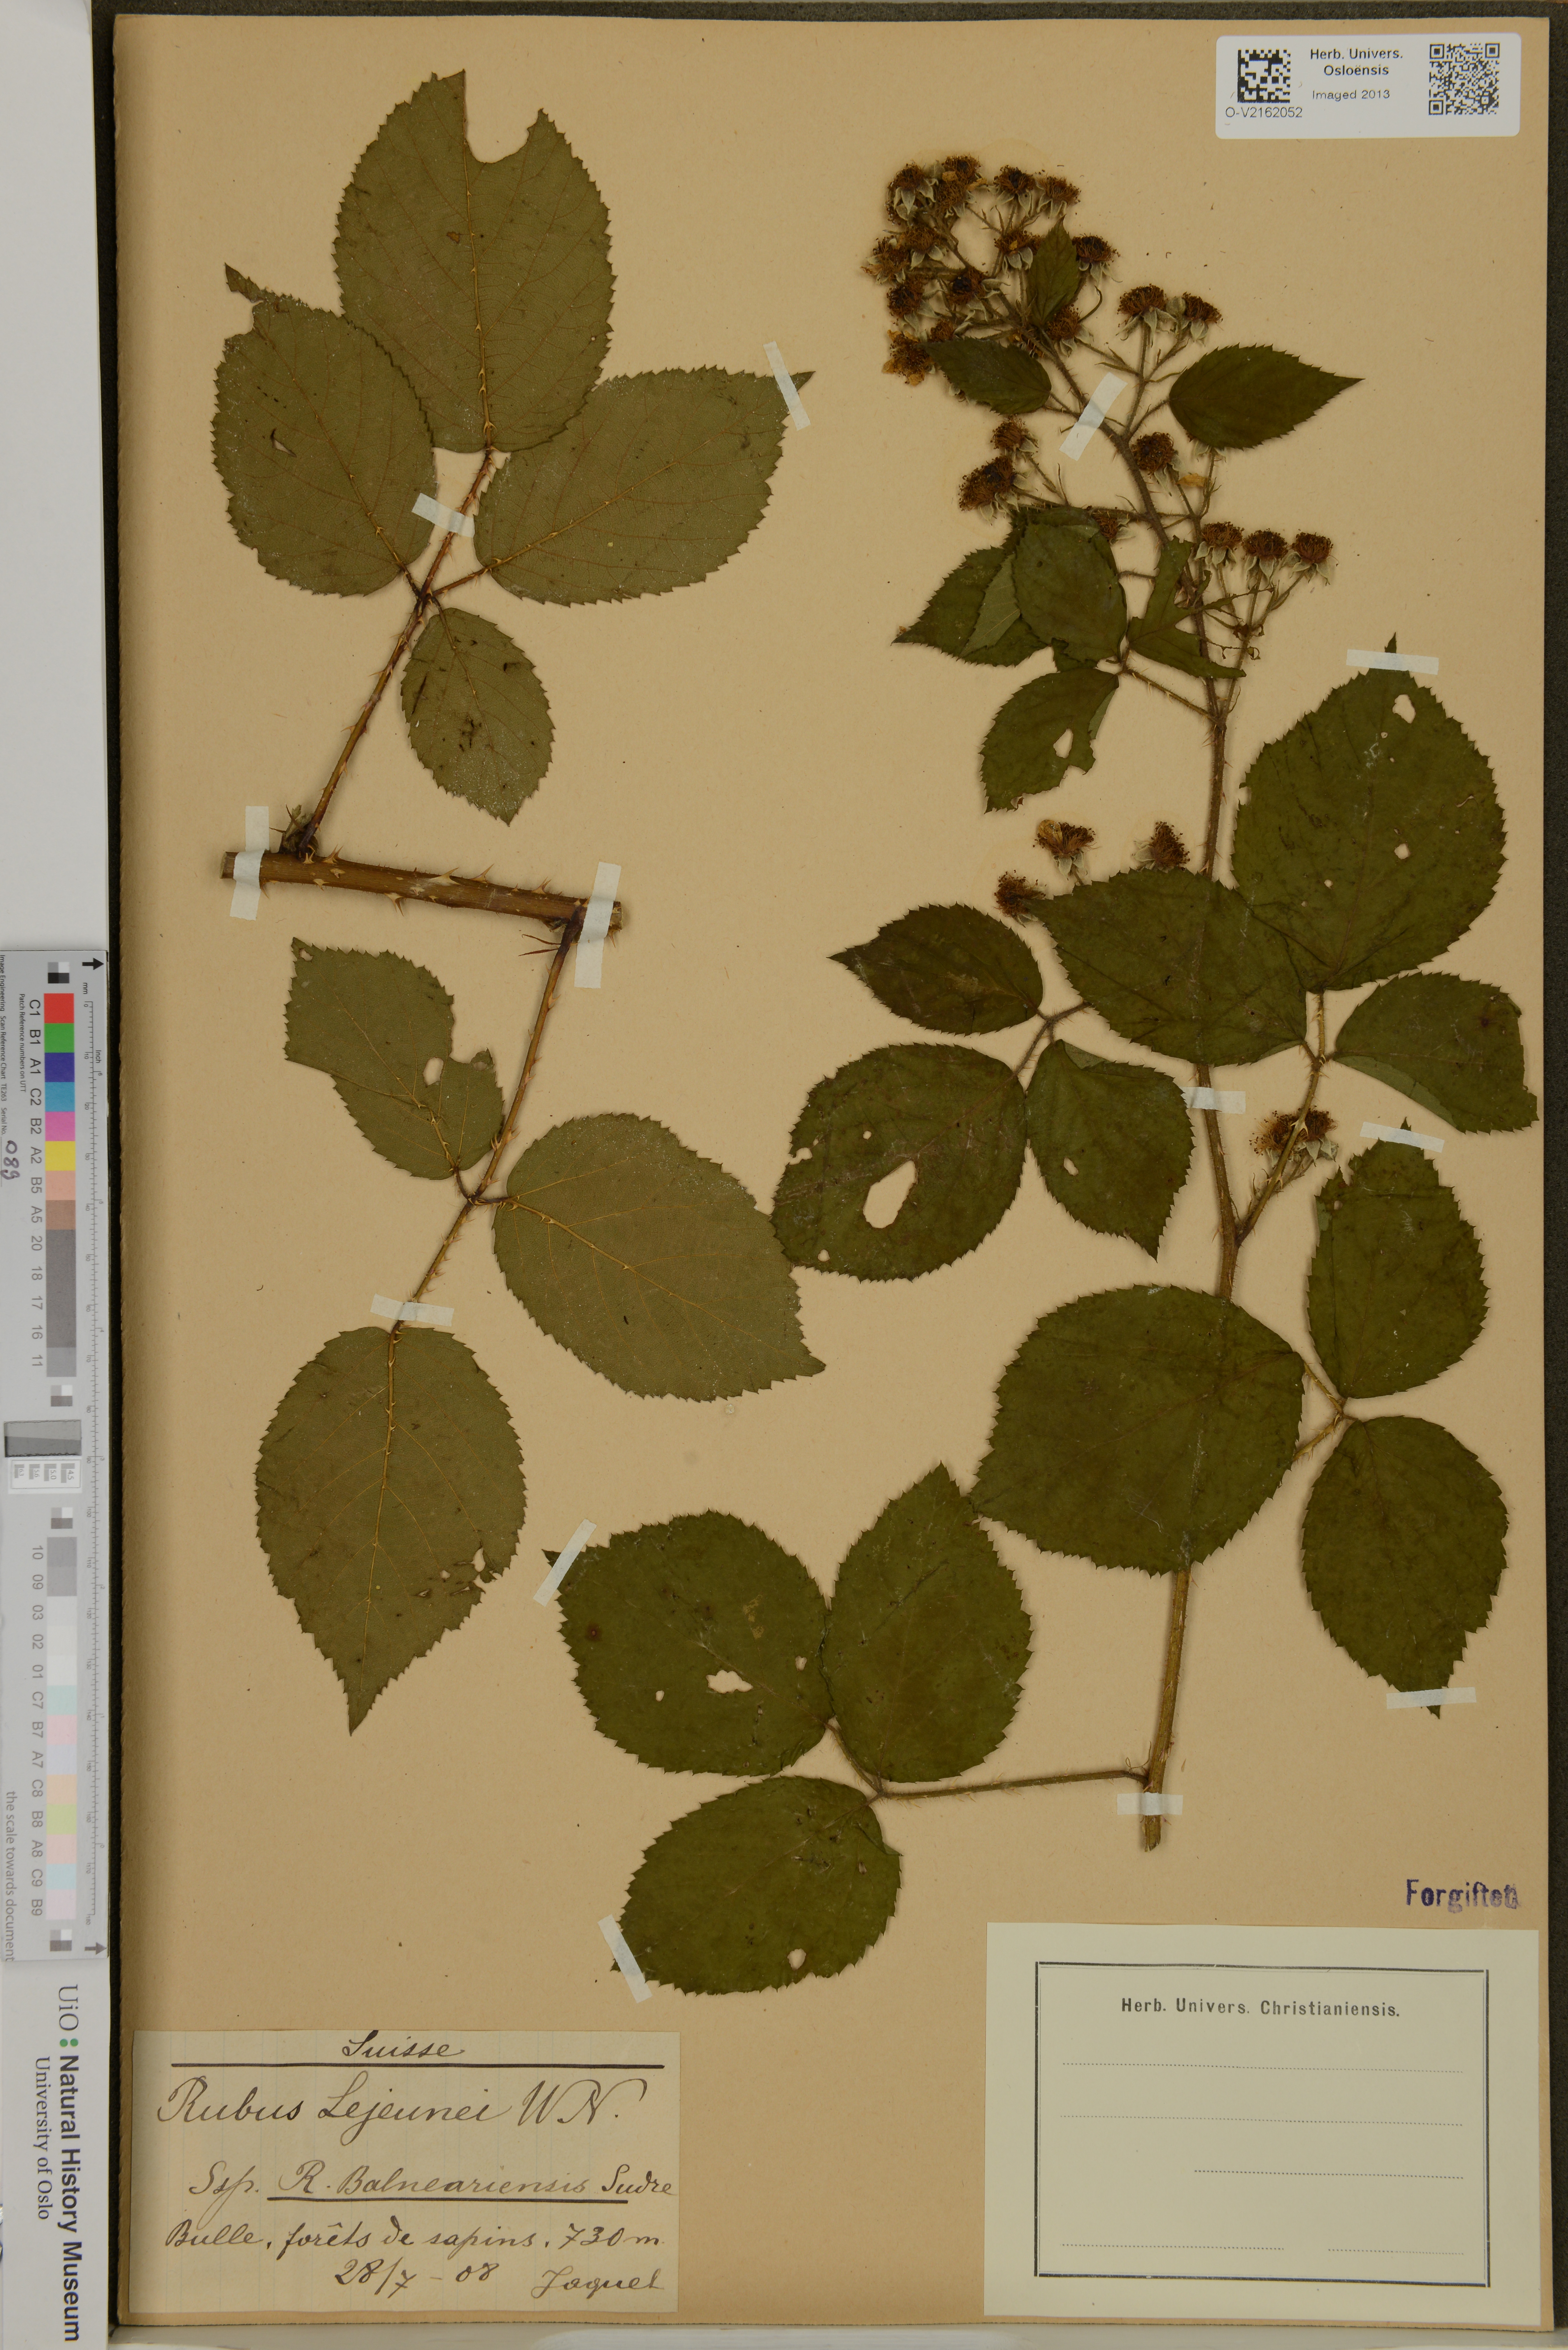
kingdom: Plantae
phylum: Tracheophyta
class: Magnoliopsida
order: Rosales
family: Rosaceae
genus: Rubus
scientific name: Rubus lejeunei
